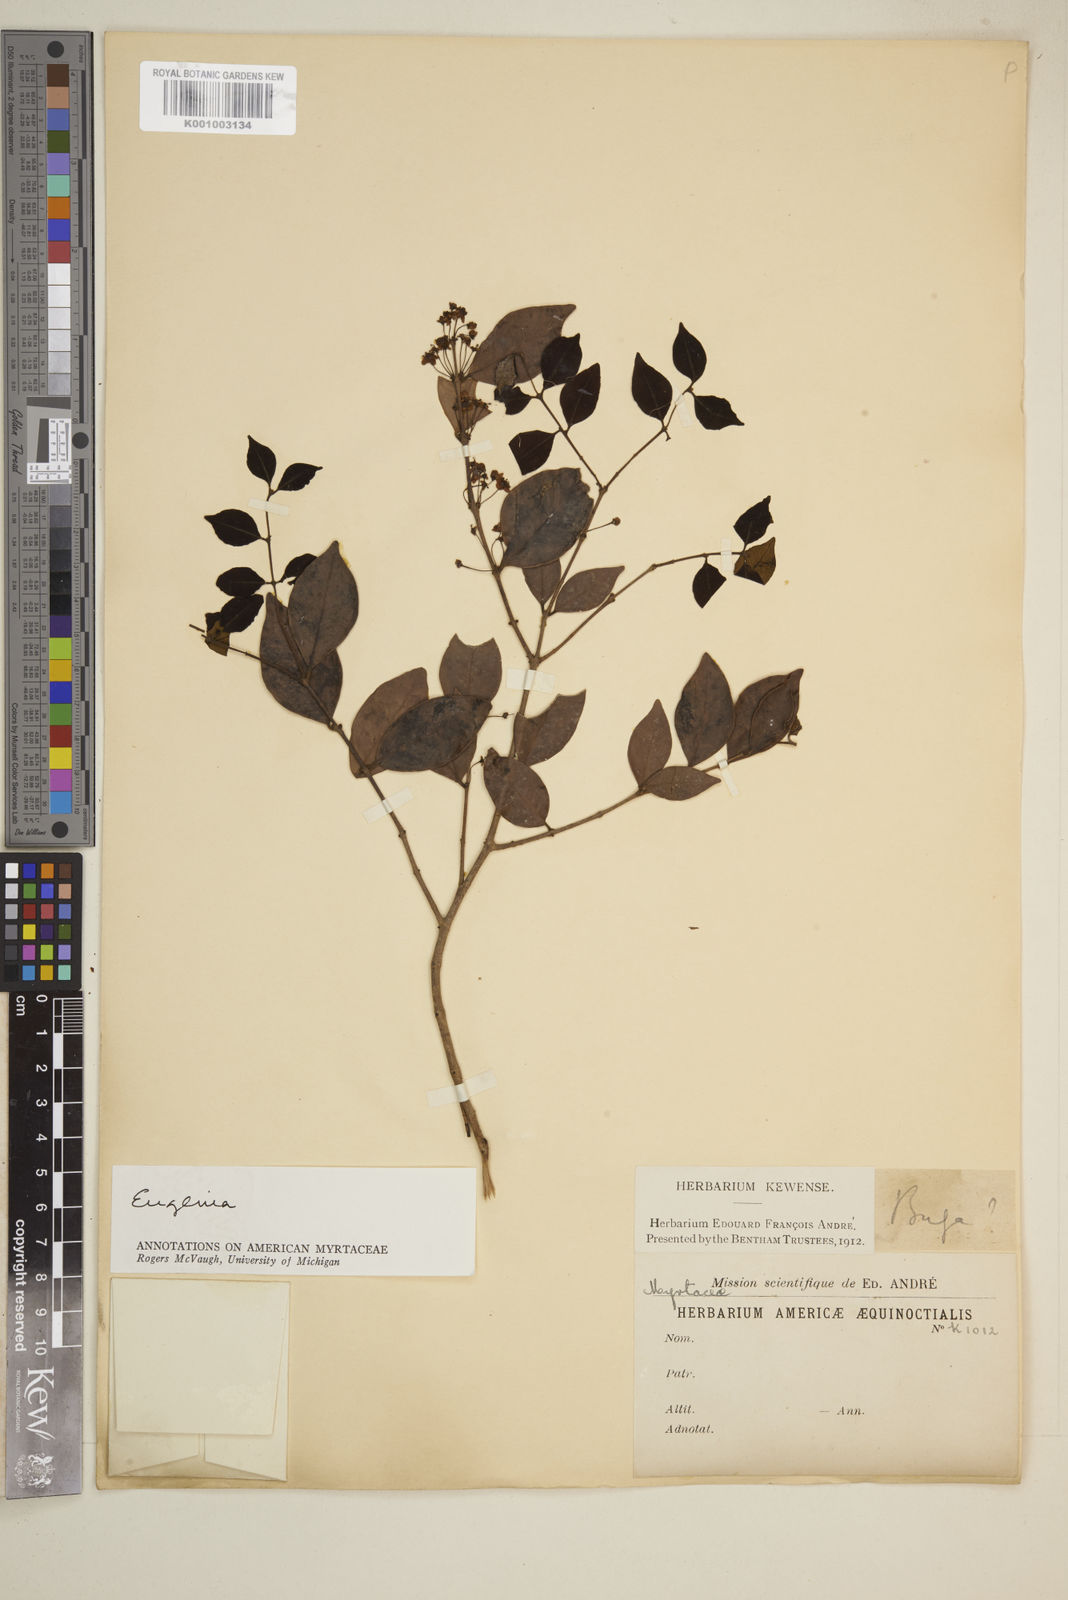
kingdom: Plantae
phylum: Tracheophyta
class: Magnoliopsida
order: Myrtales
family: Myrtaceae
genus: Eugenia
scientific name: Eugenia
